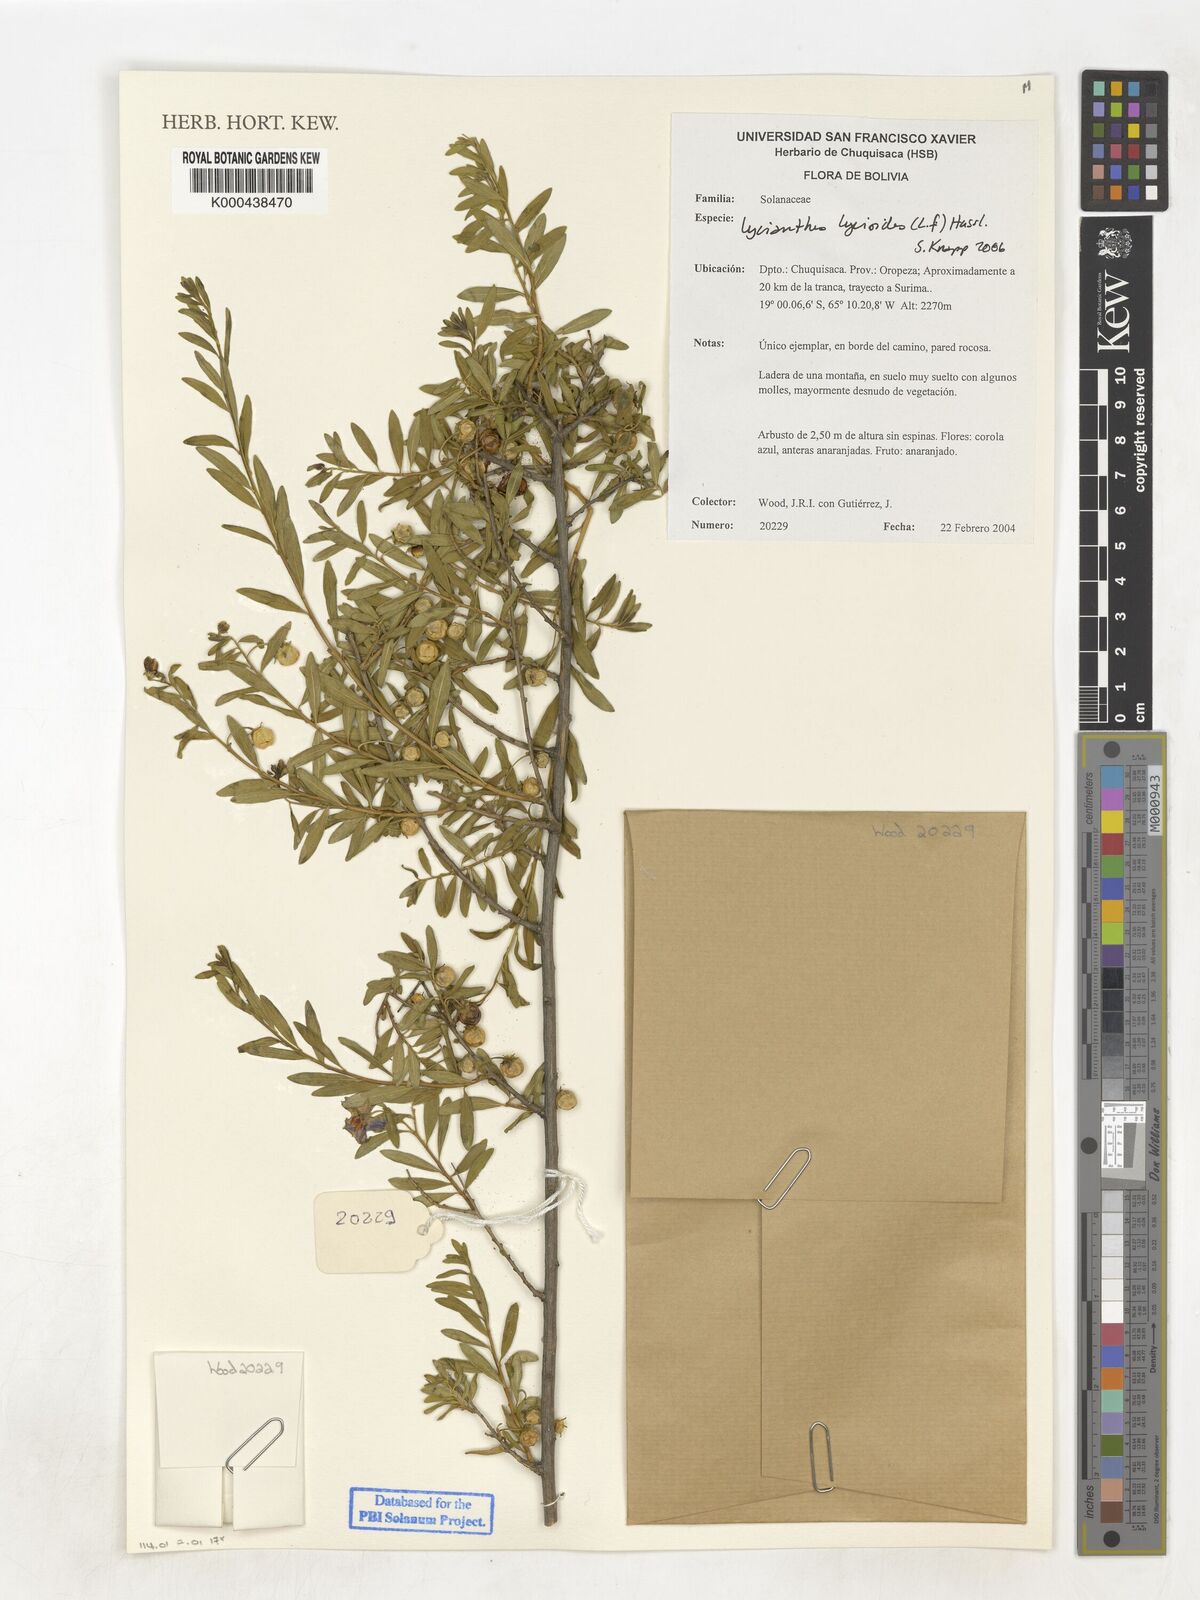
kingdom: Plantae
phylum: Tracheophyta
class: Magnoliopsida
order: Solanales
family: Solanaceae
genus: Lycianthes
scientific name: Lycianthes lycioides
